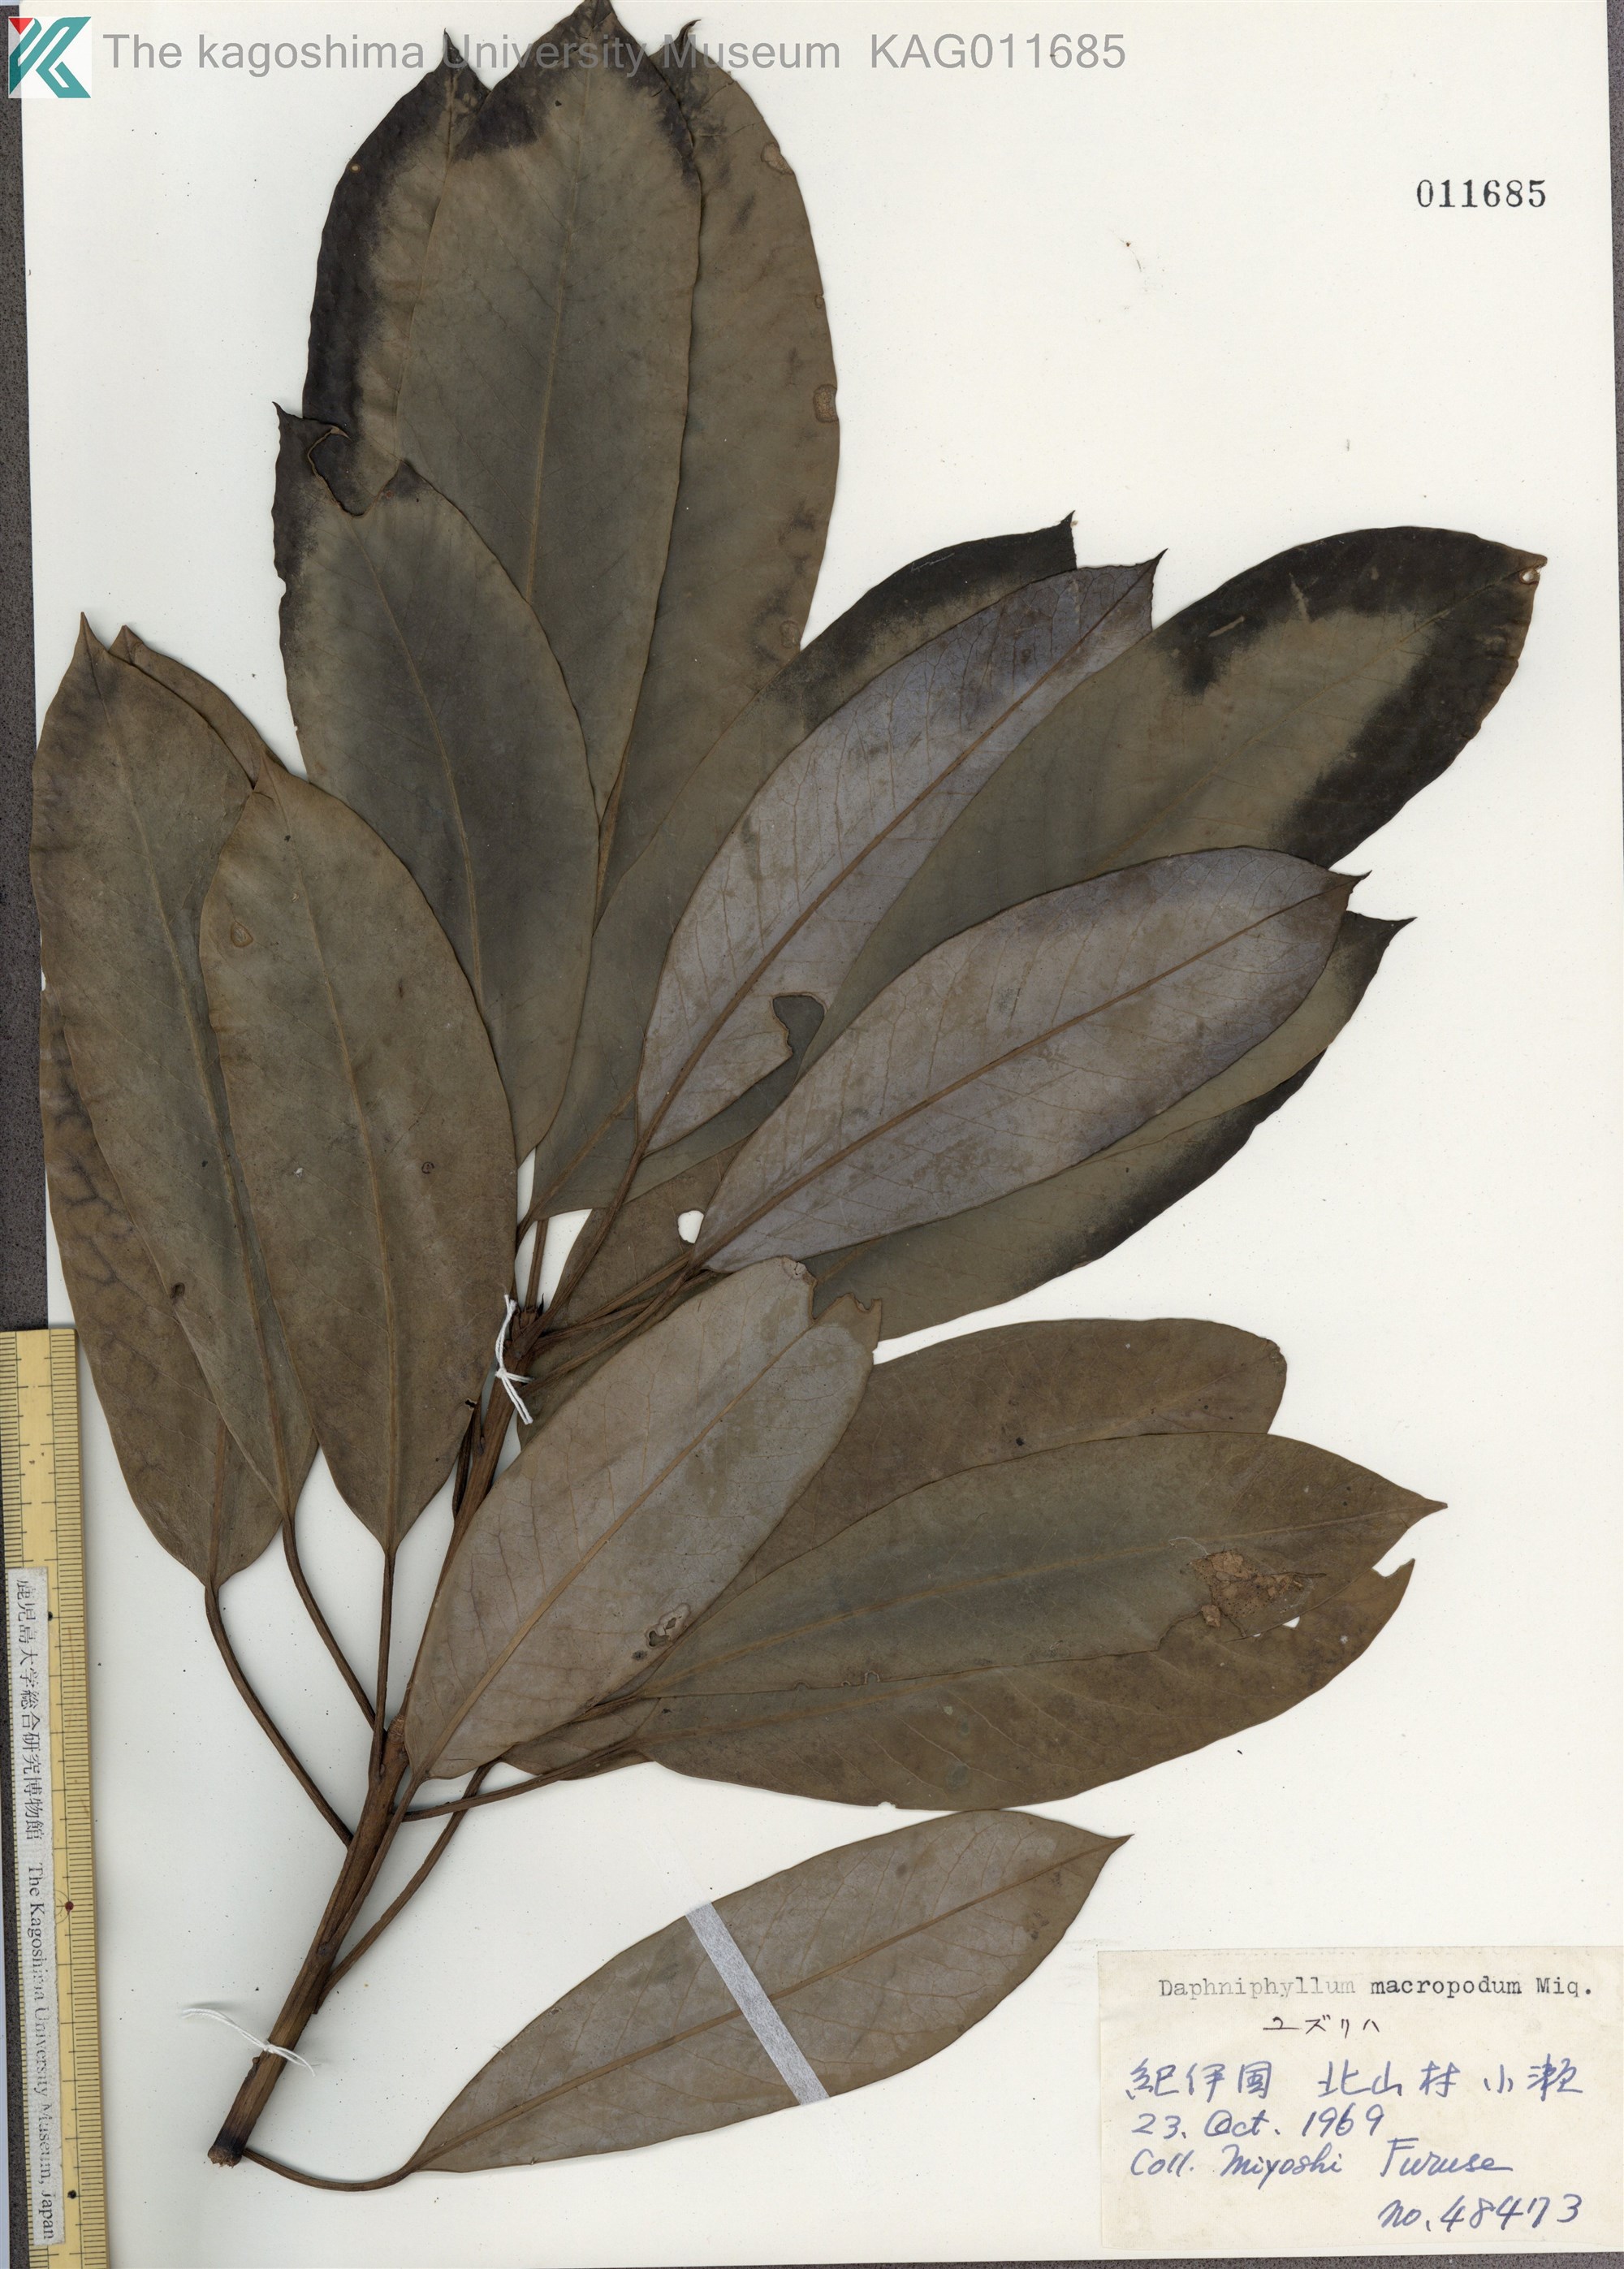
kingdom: Plantae
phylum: Tracheophyta
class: Magnoliopsida
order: Saxifragales
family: Daphniphyllaceae
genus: Daphniphyllum
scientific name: Daphniphyllum macropodum
